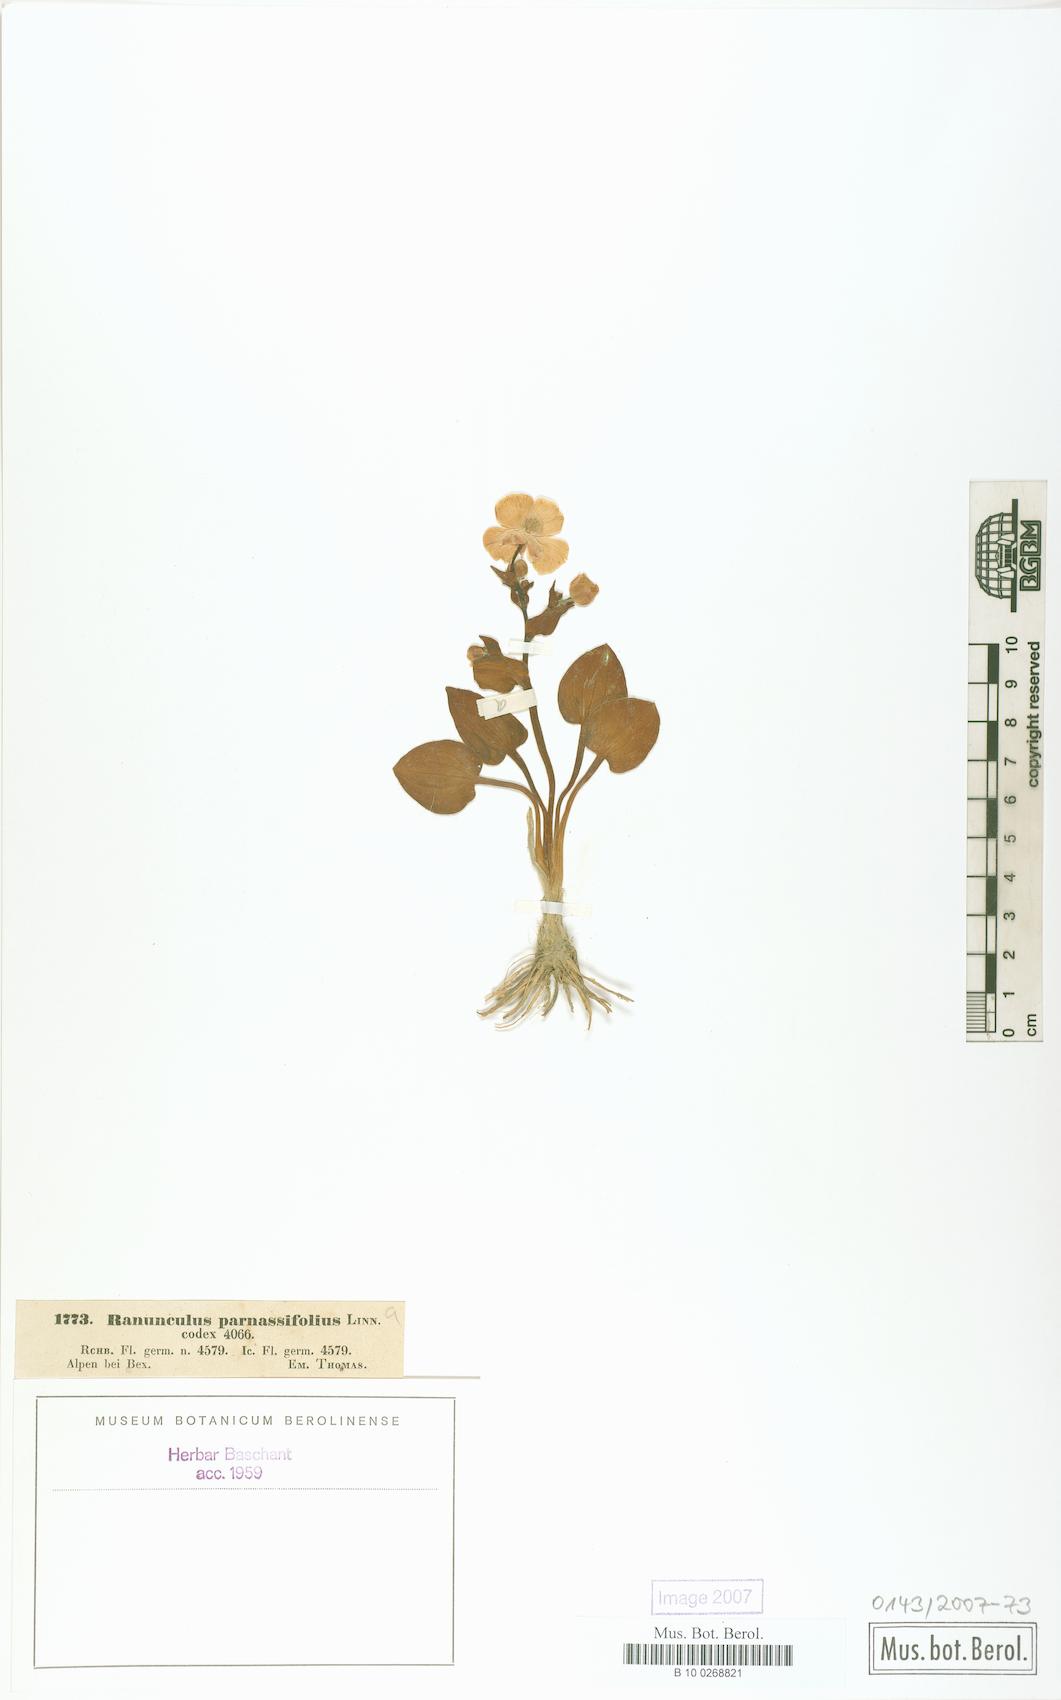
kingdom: Plantae
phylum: Tracheophyta
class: Magnoliopsida
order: Ranunculales
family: Ranunculaceae
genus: Ranunculus
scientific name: Ranunculus parnassiifolius
